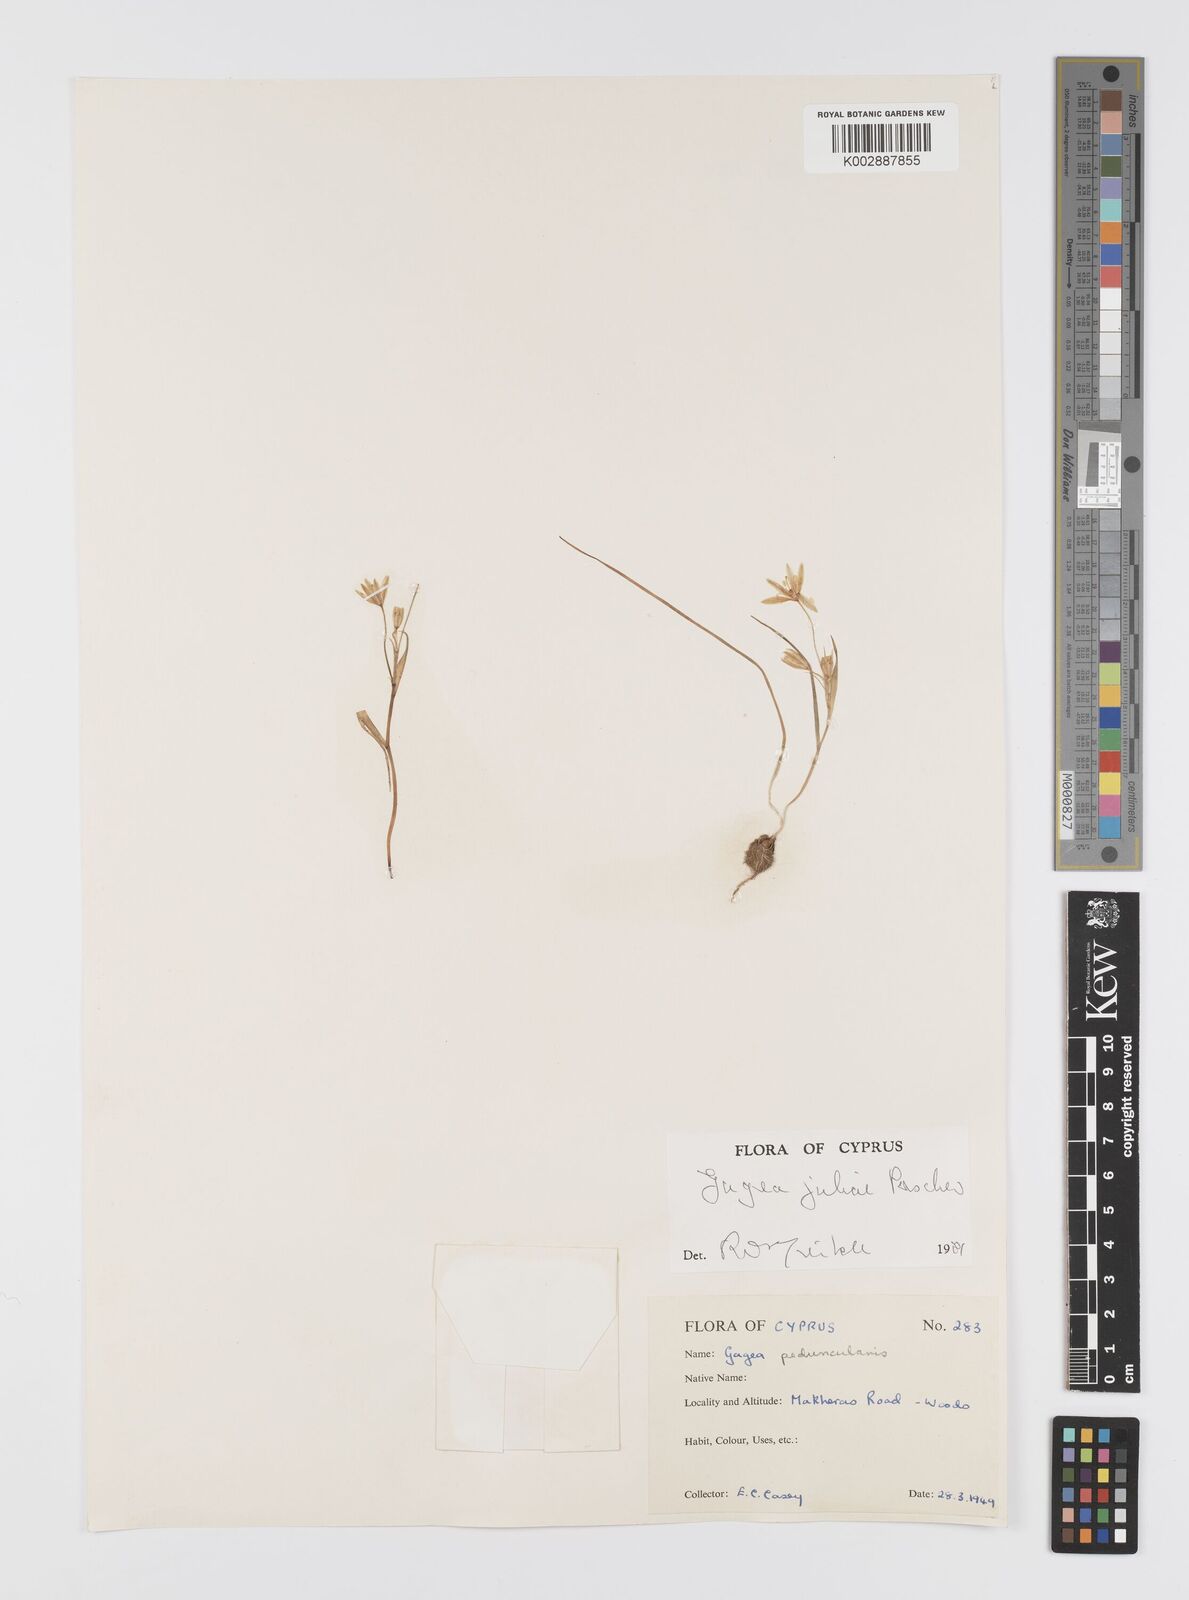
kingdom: Plantae
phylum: Tracheophyta
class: Liliopsida
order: Liliales
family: Liliaceae
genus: Gagea
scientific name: Gagea juliae
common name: Julia’s gagea
